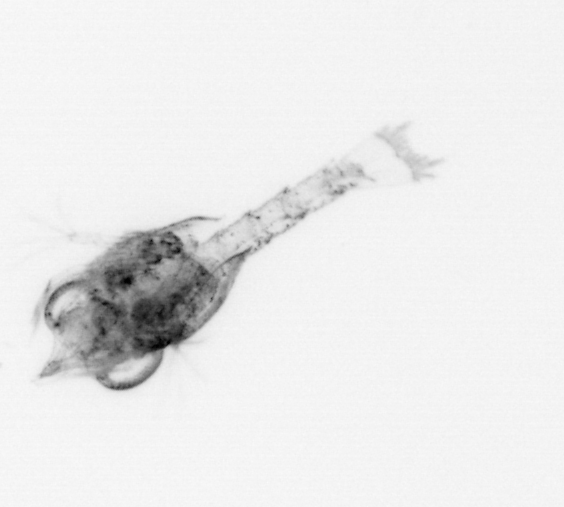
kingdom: Animalia
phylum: Arthropoda
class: Malacostraca
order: Decapoda
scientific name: Decapoda
